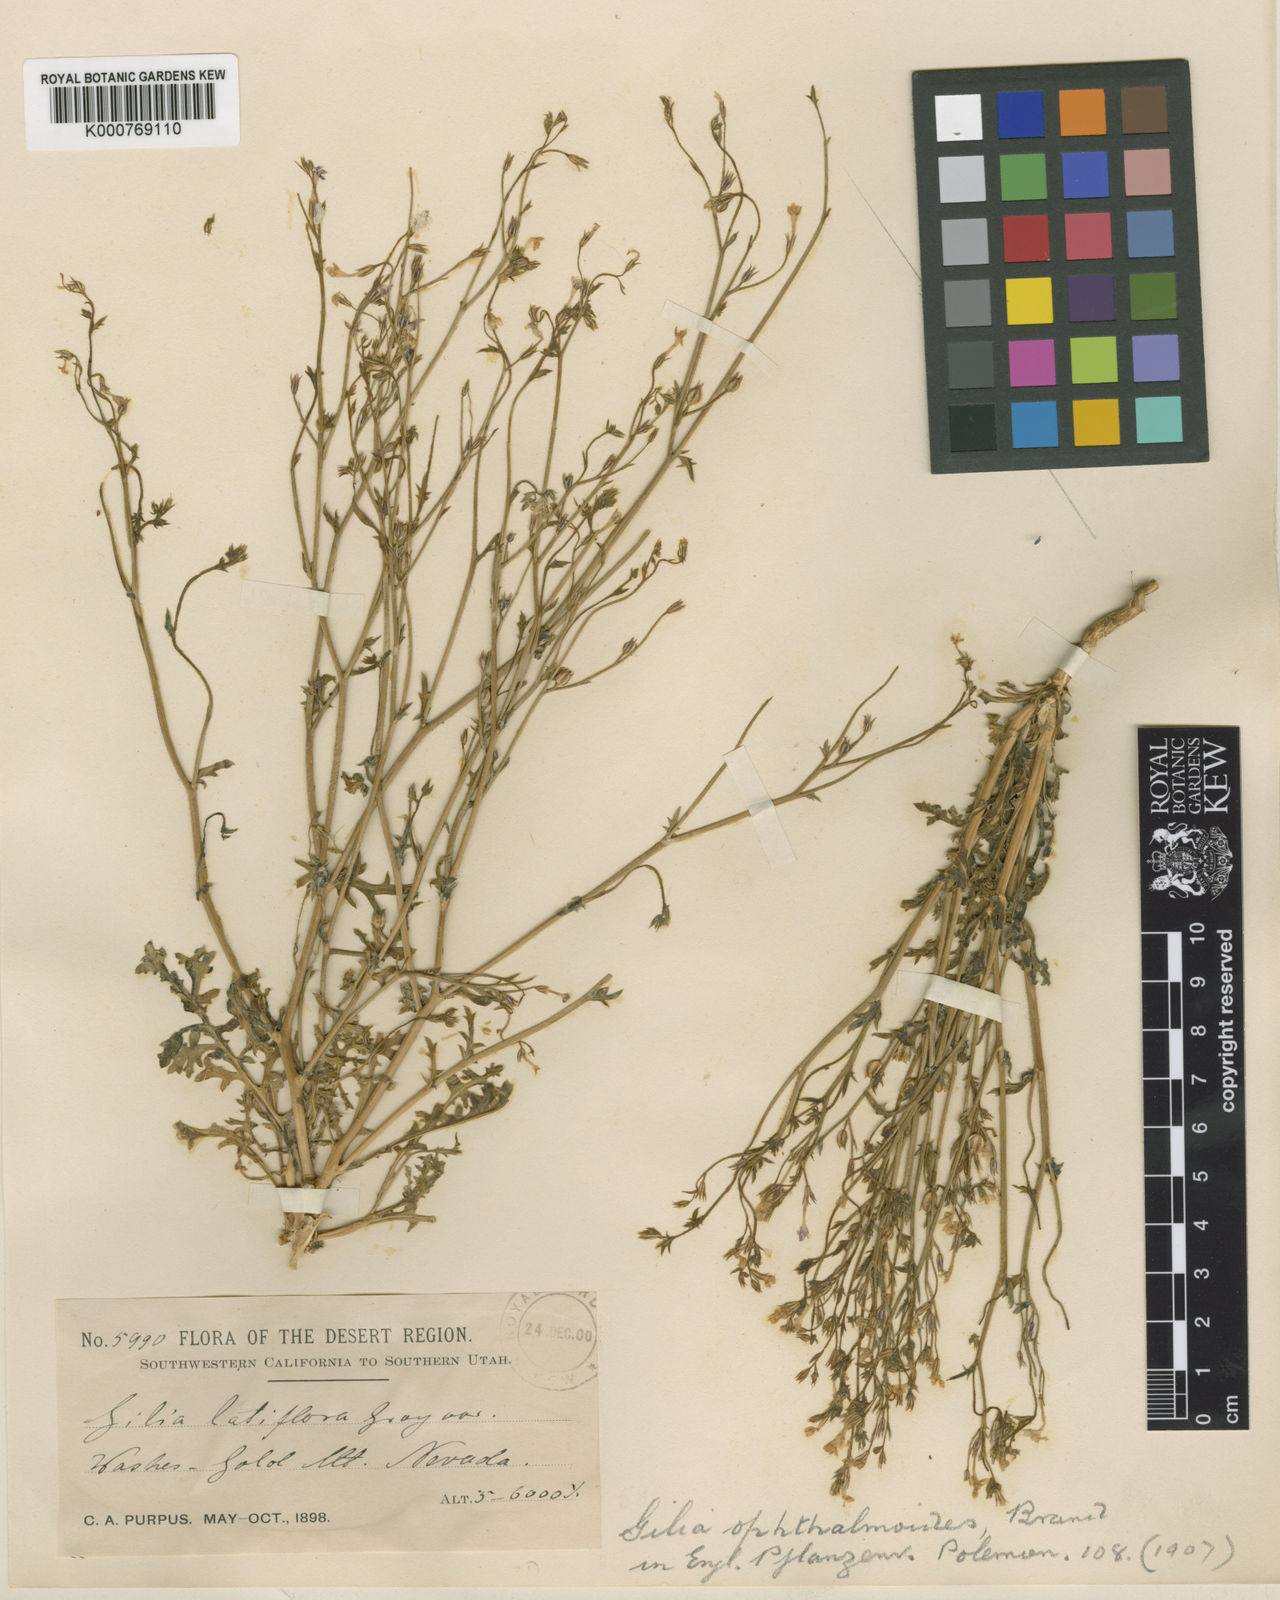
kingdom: Plantae
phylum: Tracheophyta
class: Magnoliopsida
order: Ericales
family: Polemoniaceae
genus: Gilia
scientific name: Gilia ophthalmoides
